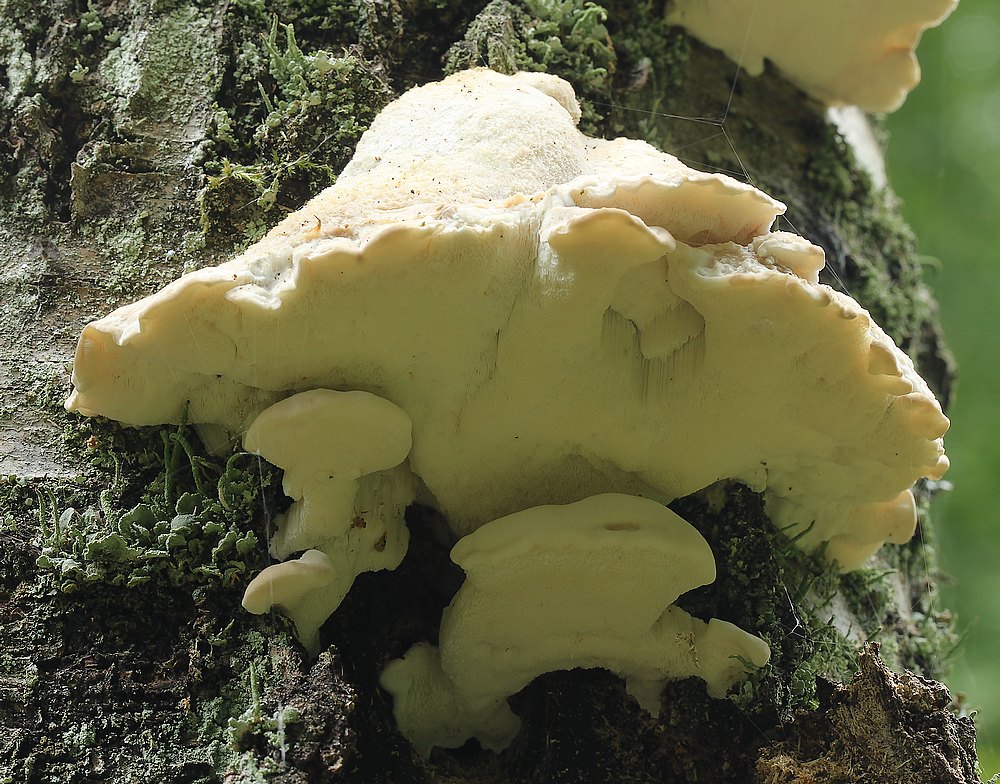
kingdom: Fungi
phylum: Basidiomycota
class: Agaricomycetes
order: Polyporales
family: Dacryobolaceae
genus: Postia
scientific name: Postia
